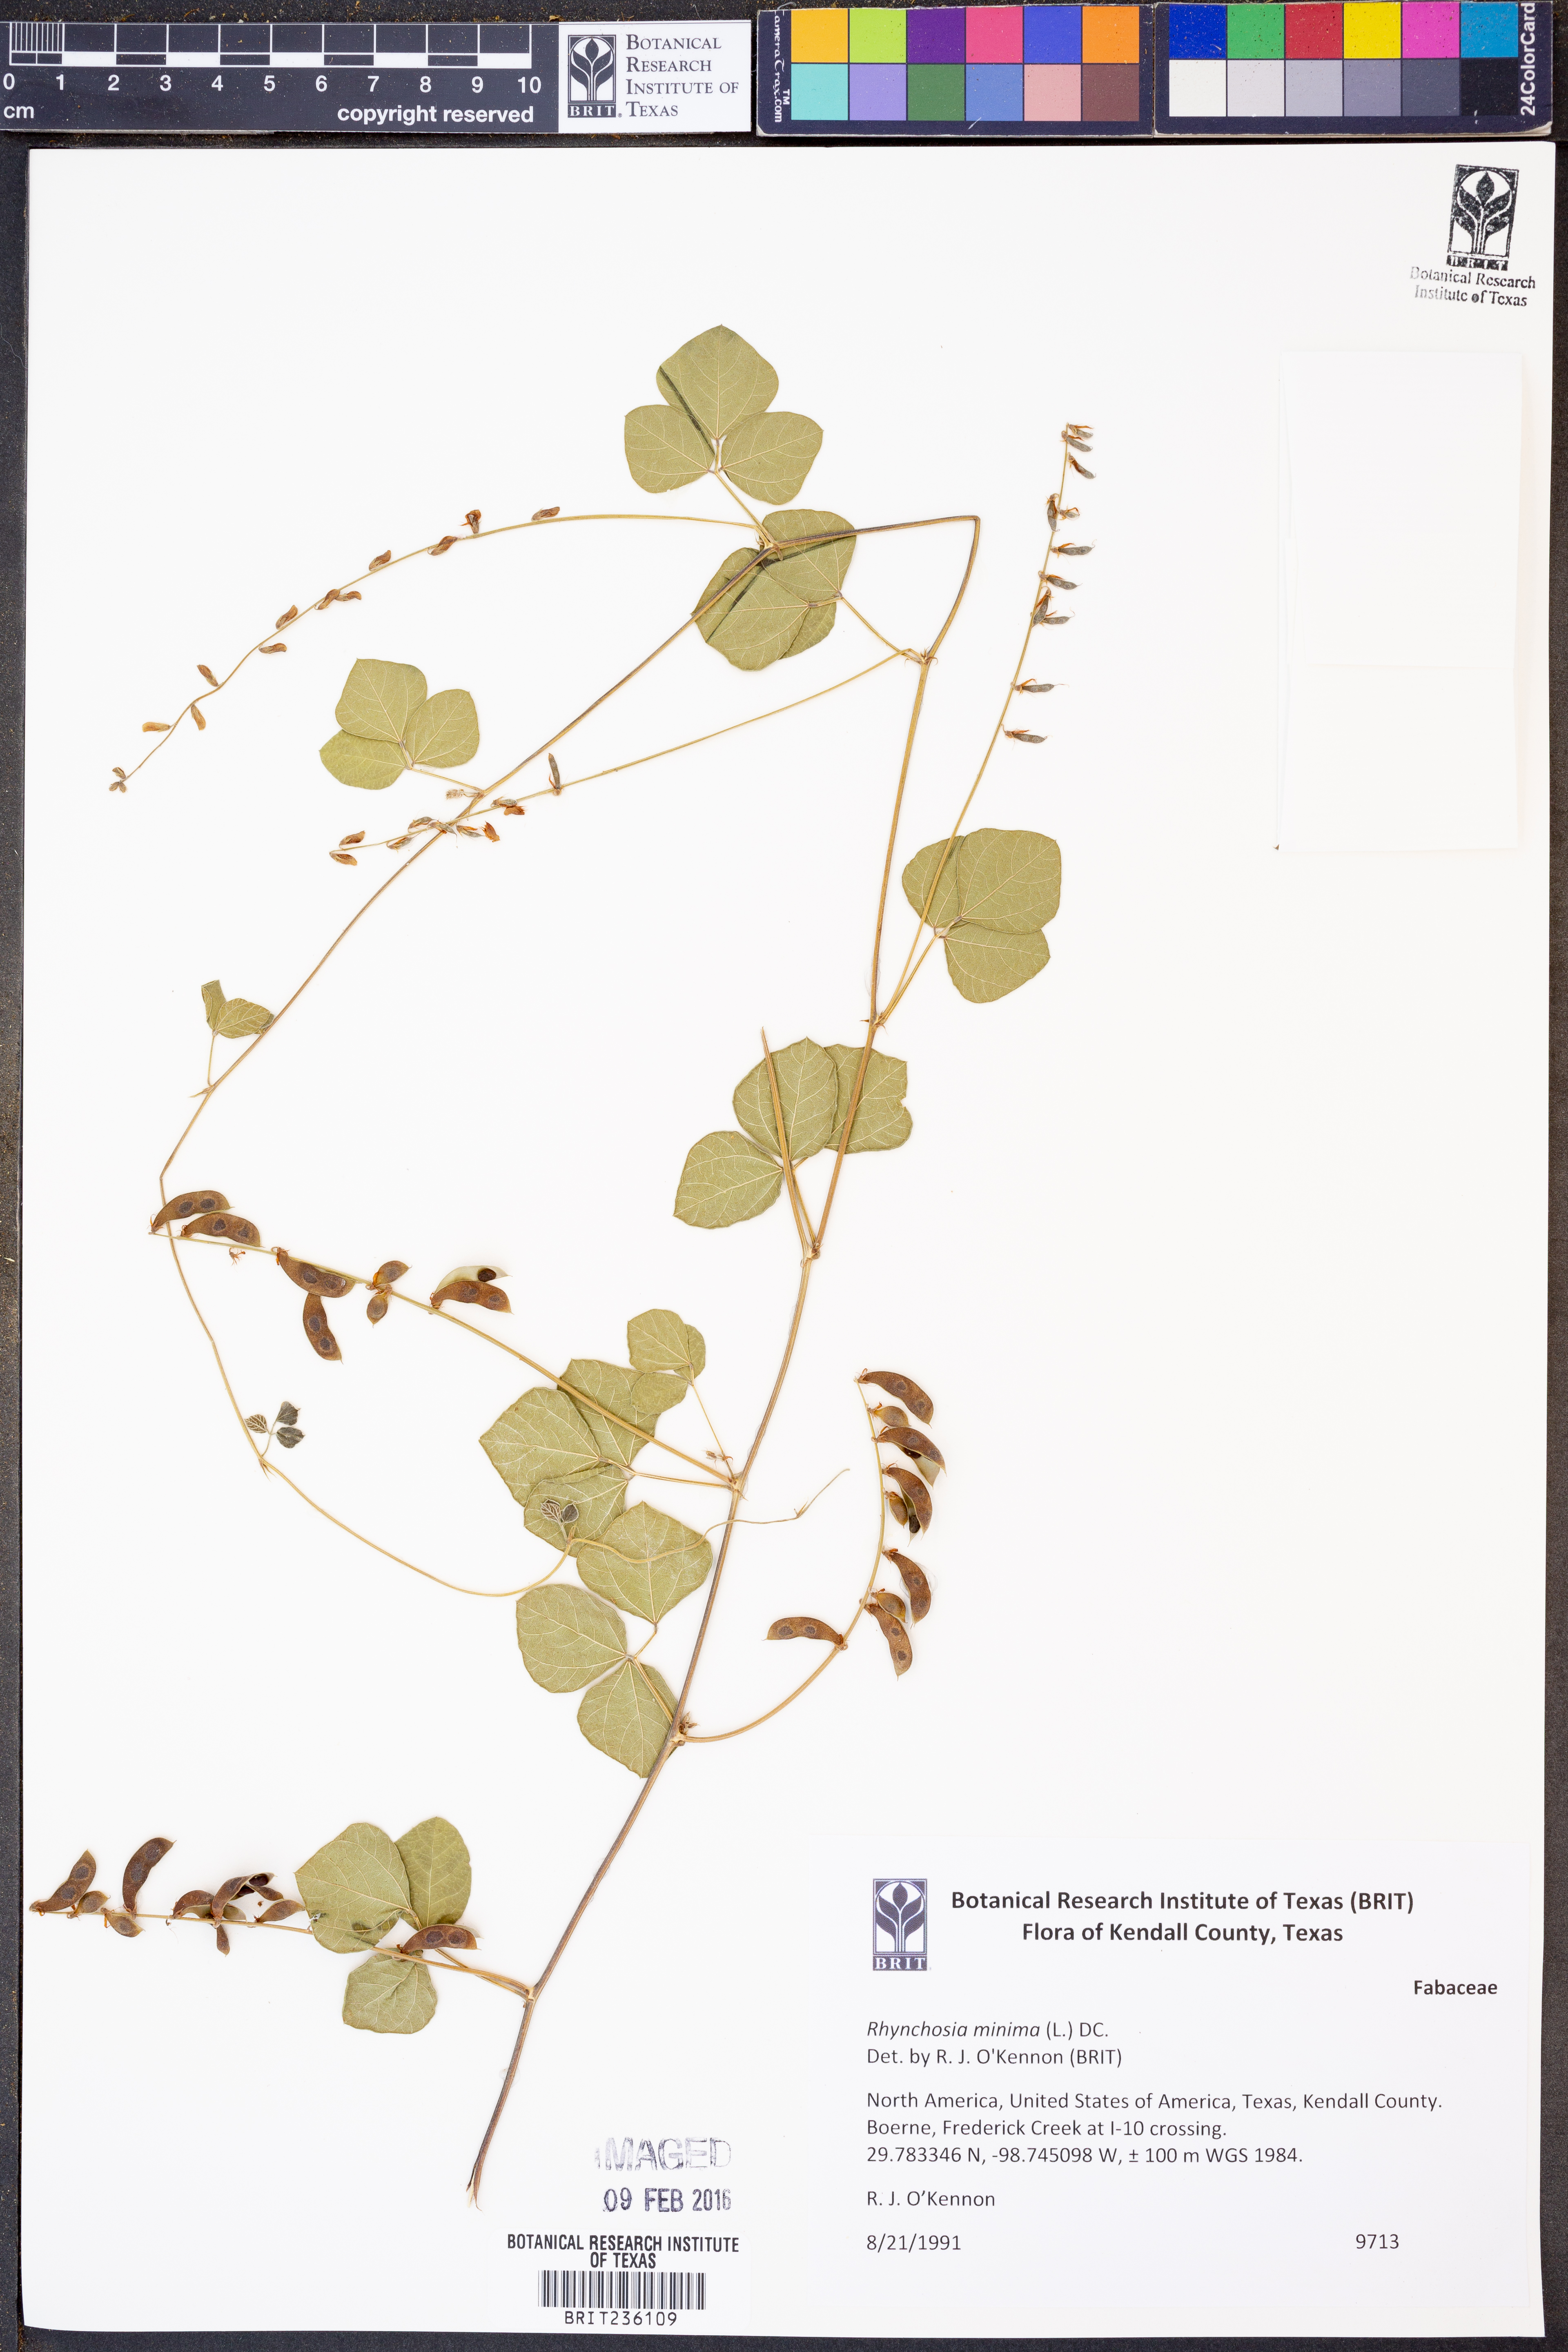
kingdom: Plantae
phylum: Tracheophyta
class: Magnoliopsida
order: Fabales
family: Fabaceae
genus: Rhynchosia
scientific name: Rhynchosia minima
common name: Least snoutbean
